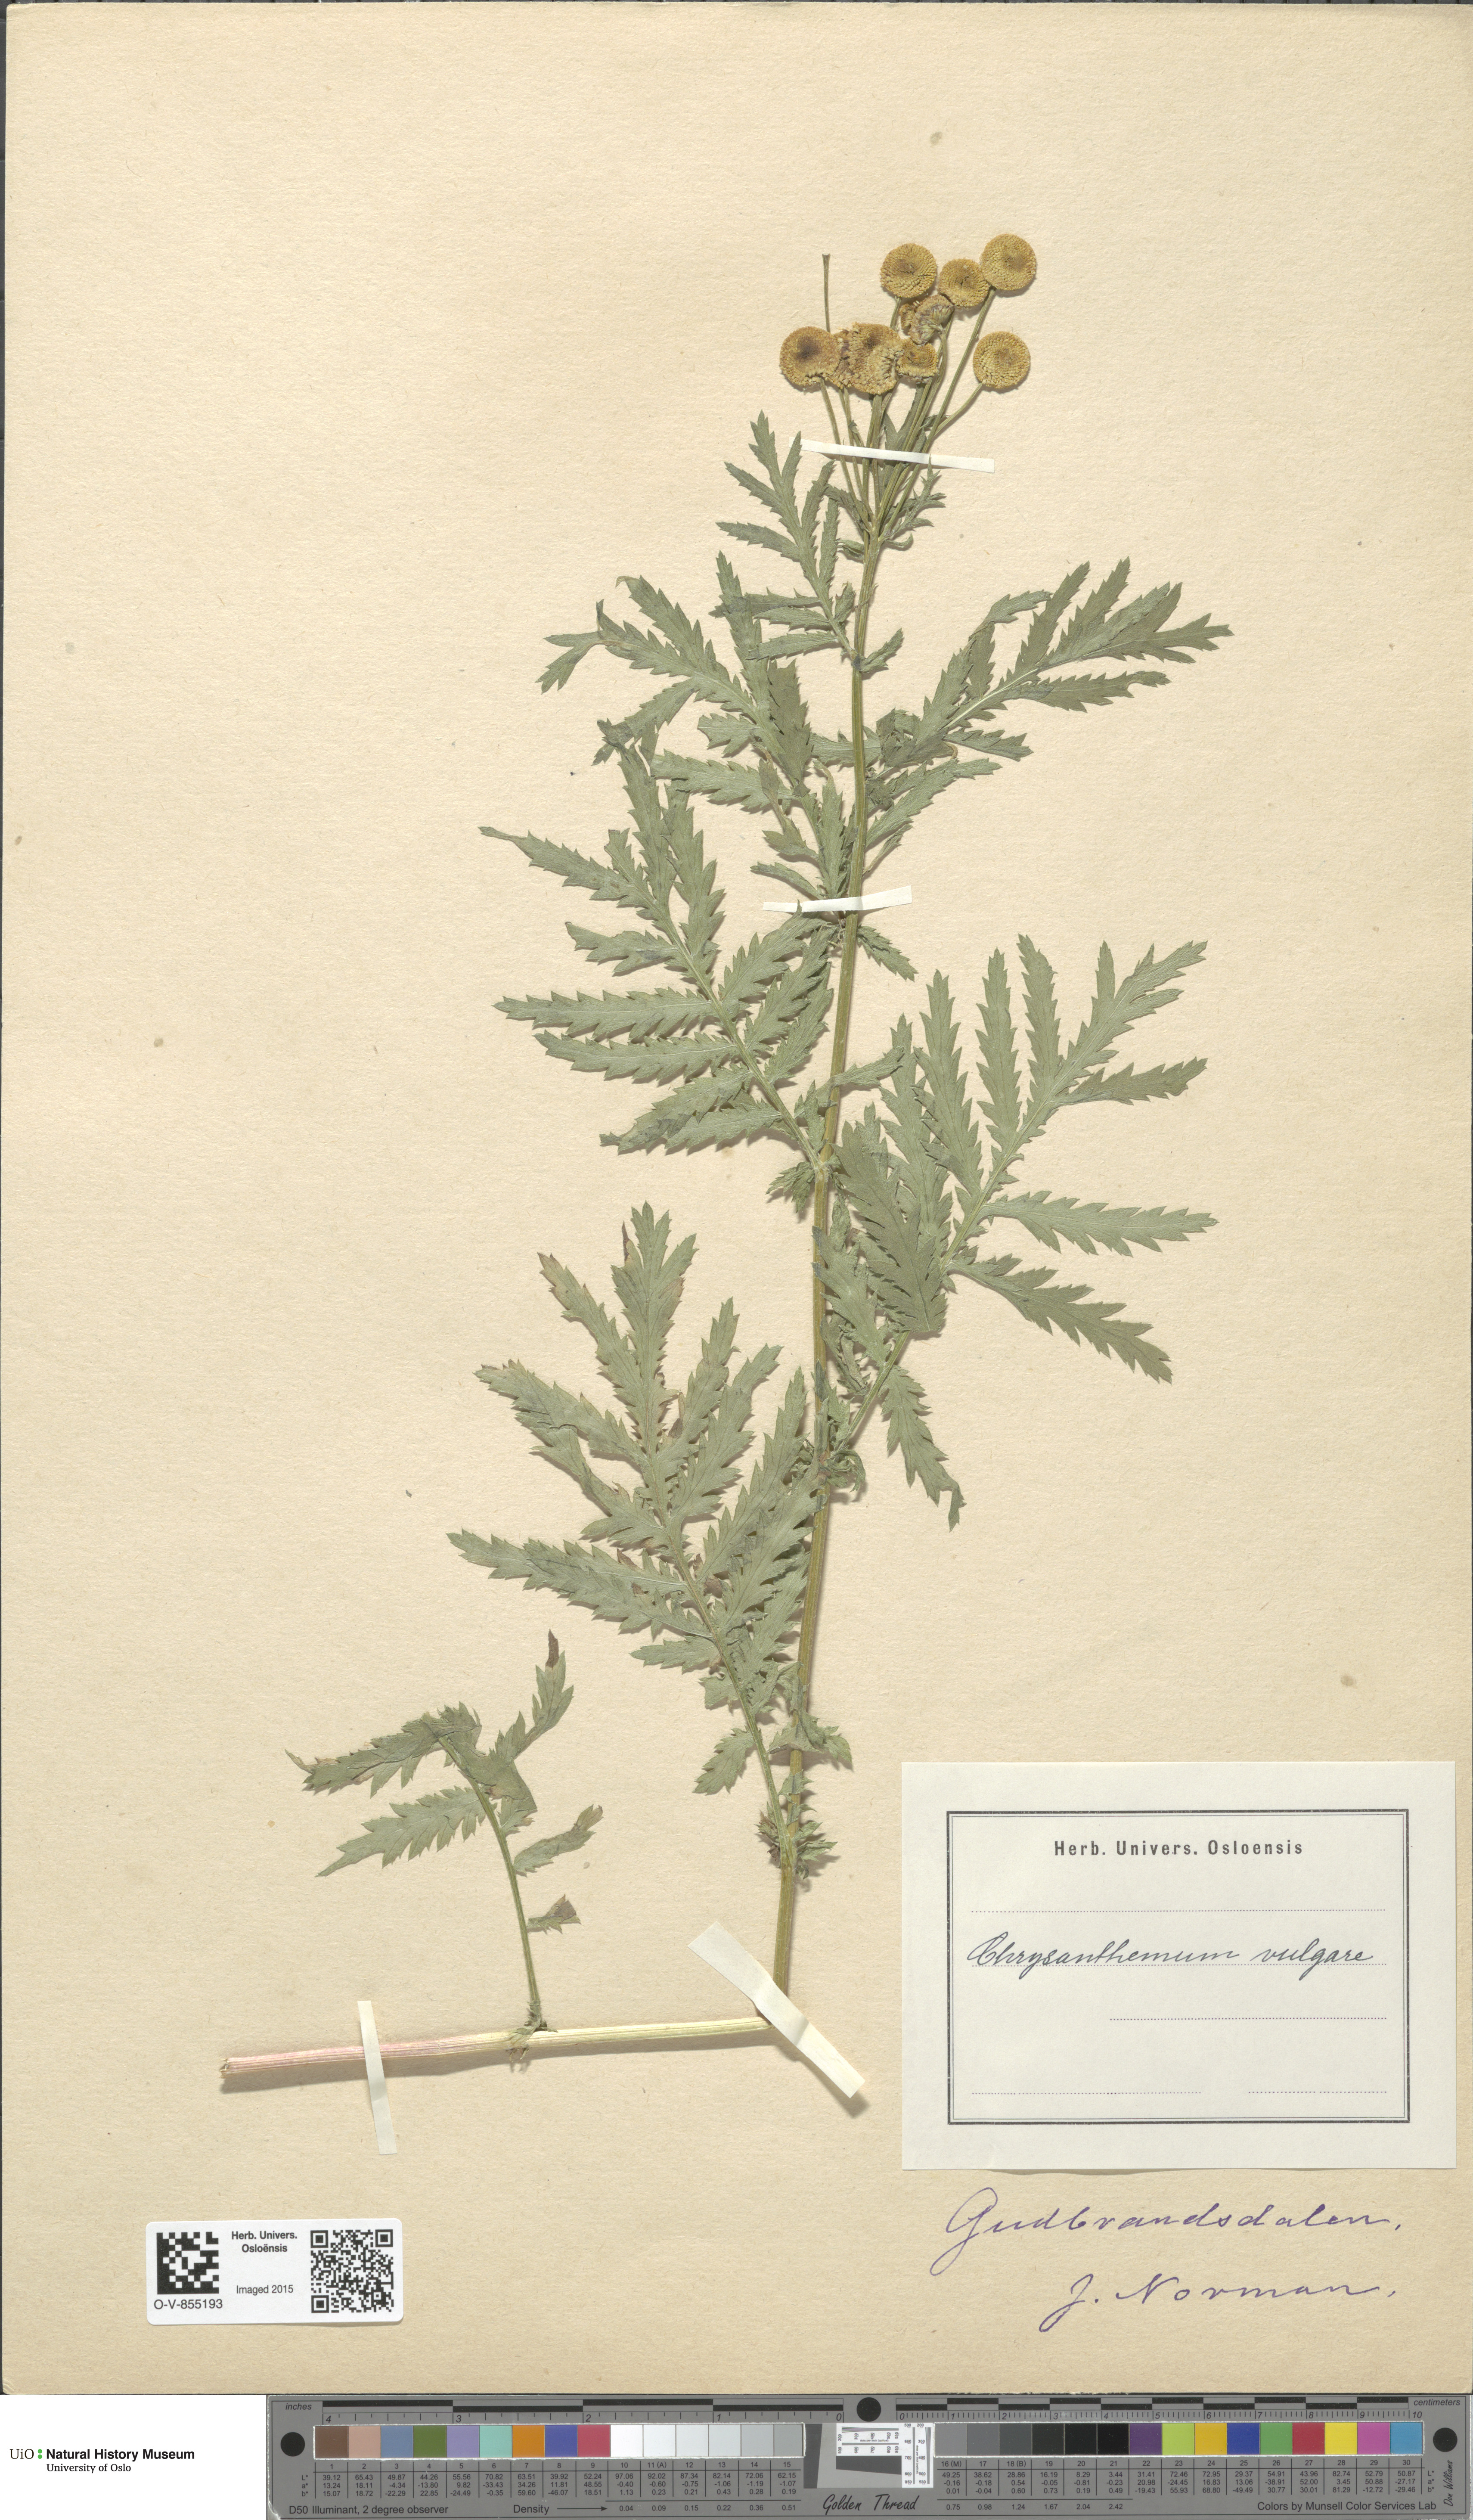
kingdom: Plantae
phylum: Tracheophyta
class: Magnoliopsida
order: Asterales
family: Asteraceae
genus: Tanacetum
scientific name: Tanacetum vulgare
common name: Common tansy
